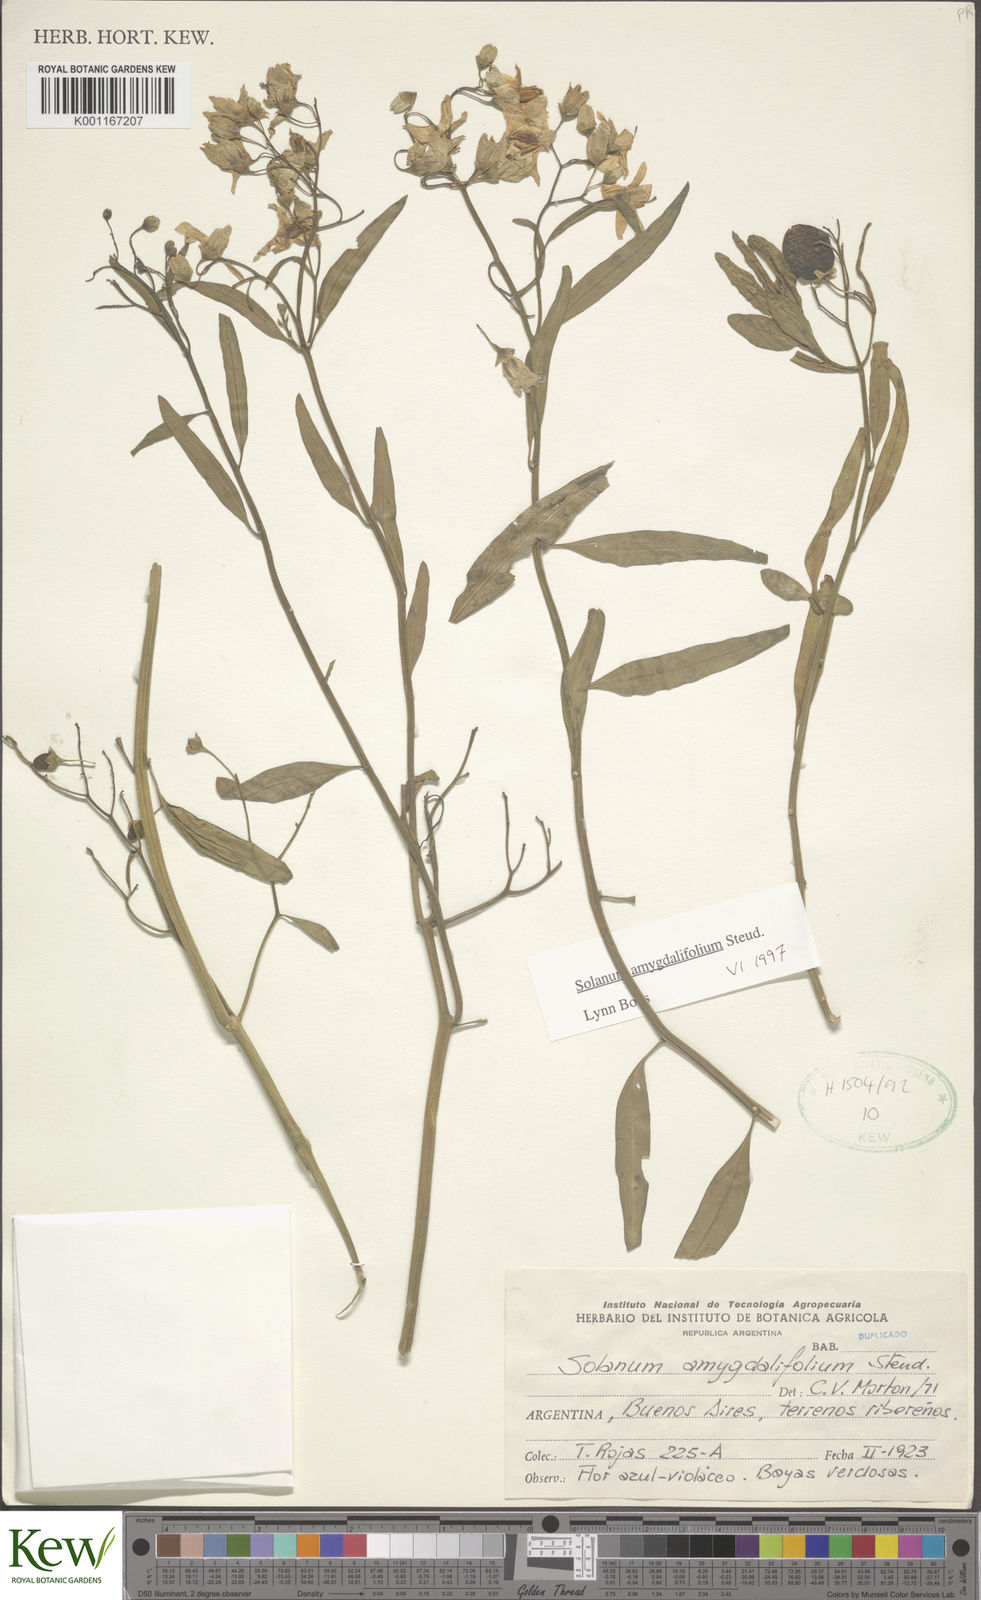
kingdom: Plantae
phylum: Tracheophyta
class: Magnoliopsida
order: Solanales
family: Solanaceae
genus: Solanum
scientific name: Solanum amygdalifolium
